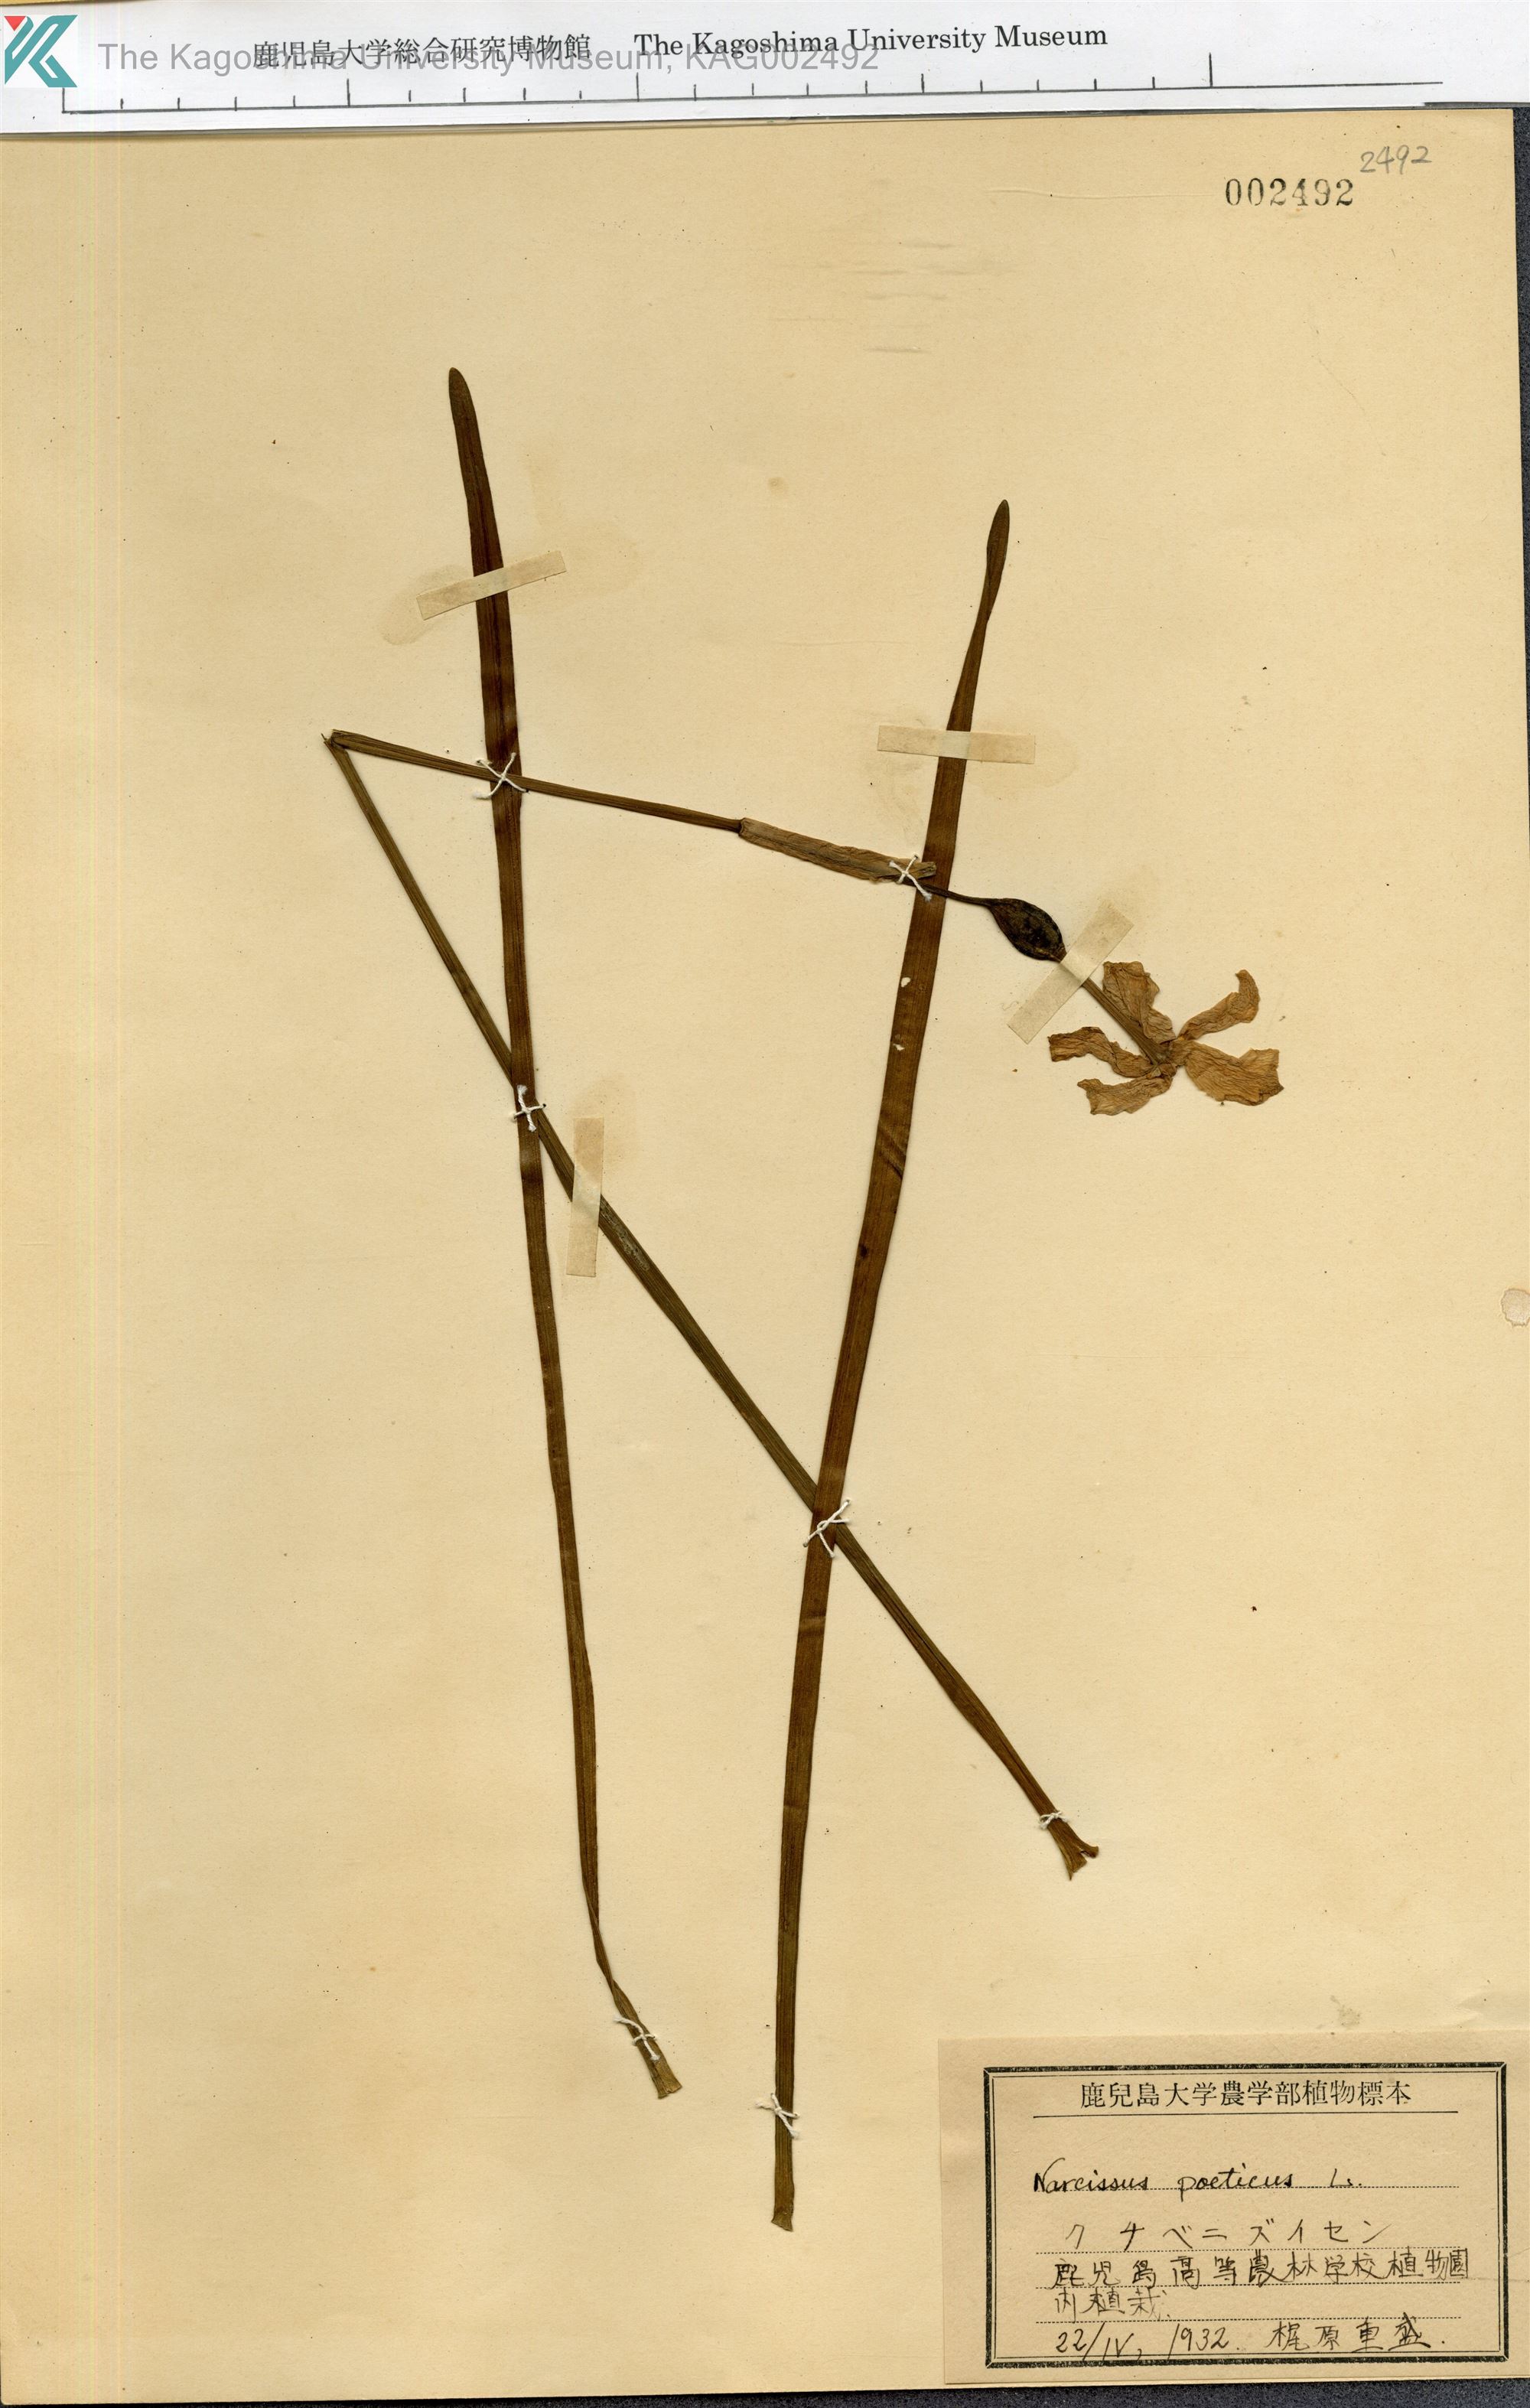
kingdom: Plantae
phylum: Tracheophyta
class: Liliopsida
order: Asparagales
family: Amaryllidaceae
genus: Narcissus
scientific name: Narcissus poeticus
